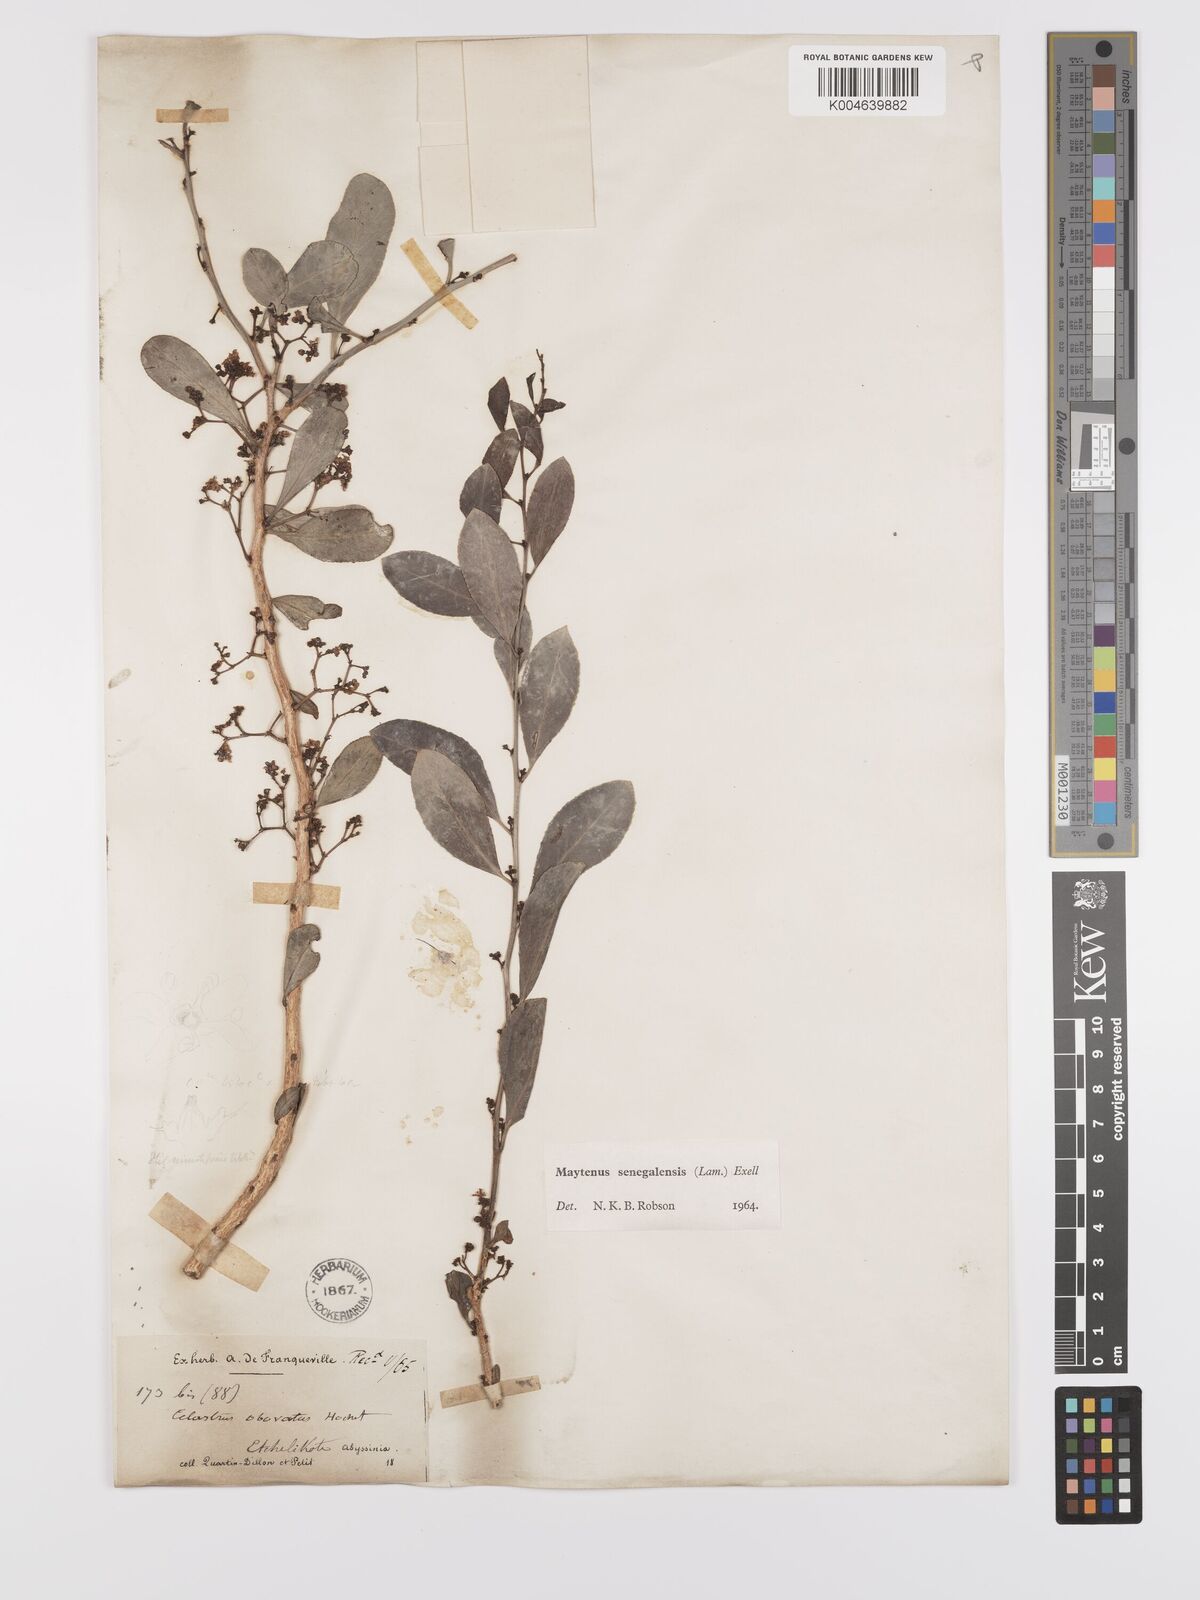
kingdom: Plantae
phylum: Tracheophyta
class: Magnoliopsida
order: Celastrales
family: Celastraceae
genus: Gymnosporia
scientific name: Gymnosporia senegalensis
